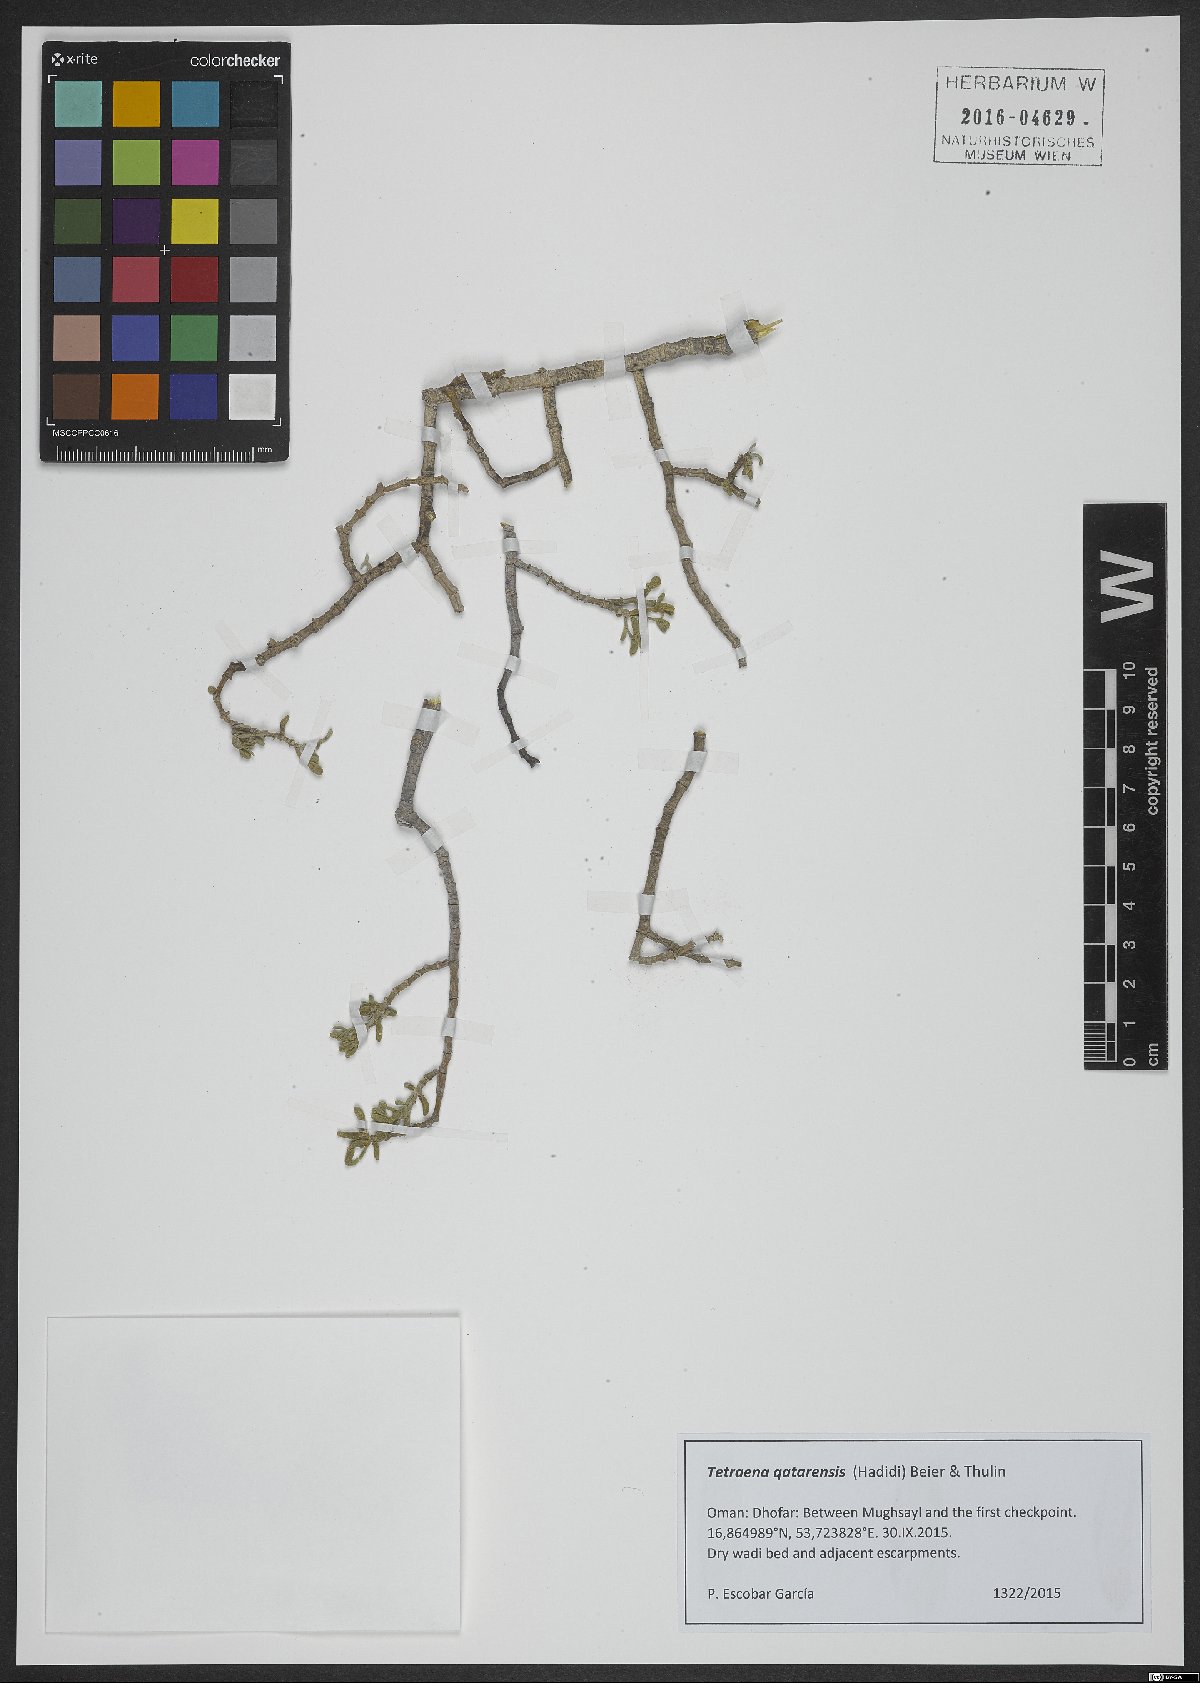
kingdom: Plantae
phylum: Tracheophyta
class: Magnoliopsida
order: Zygophyllales
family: Zygophyllaceae
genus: Tetraena
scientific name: Tetraena hamiensis
